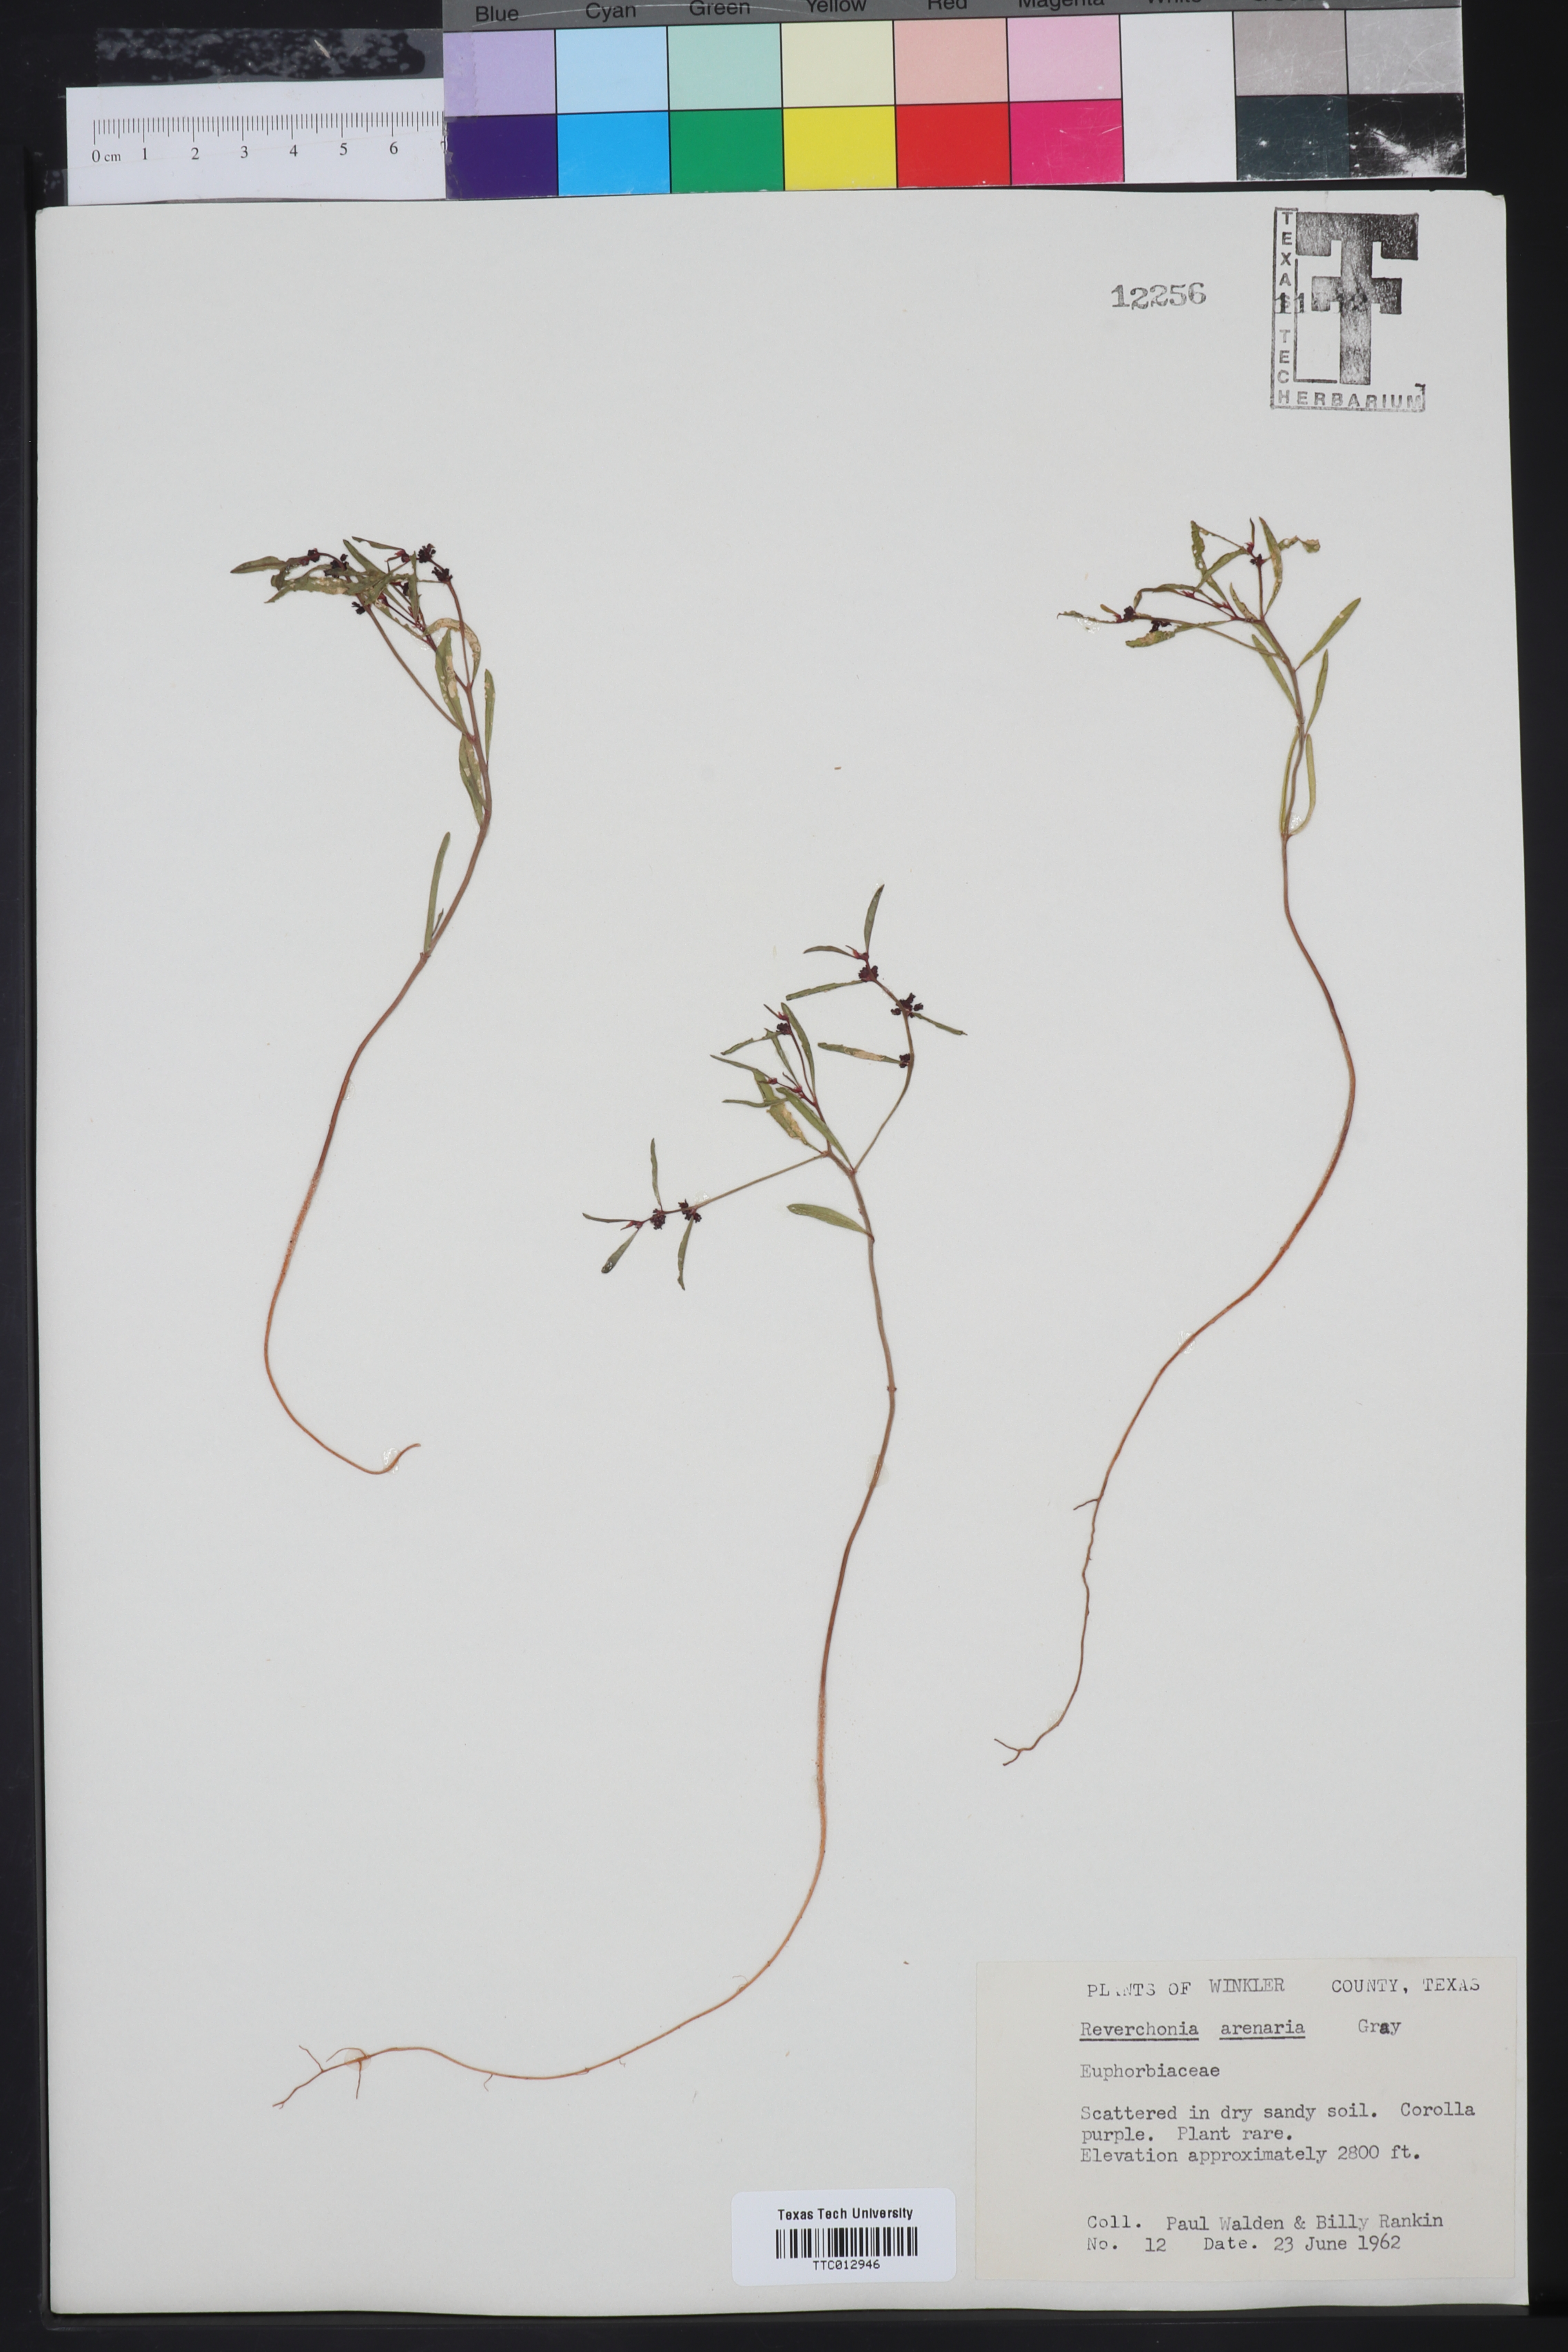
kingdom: Plantae
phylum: Tracheophyta
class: Magnoliopsida
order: Malpighiales
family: Phyllanthaceae
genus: Phyllanthus
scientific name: Phyllanthus warnockii
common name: Sand reverchonia
